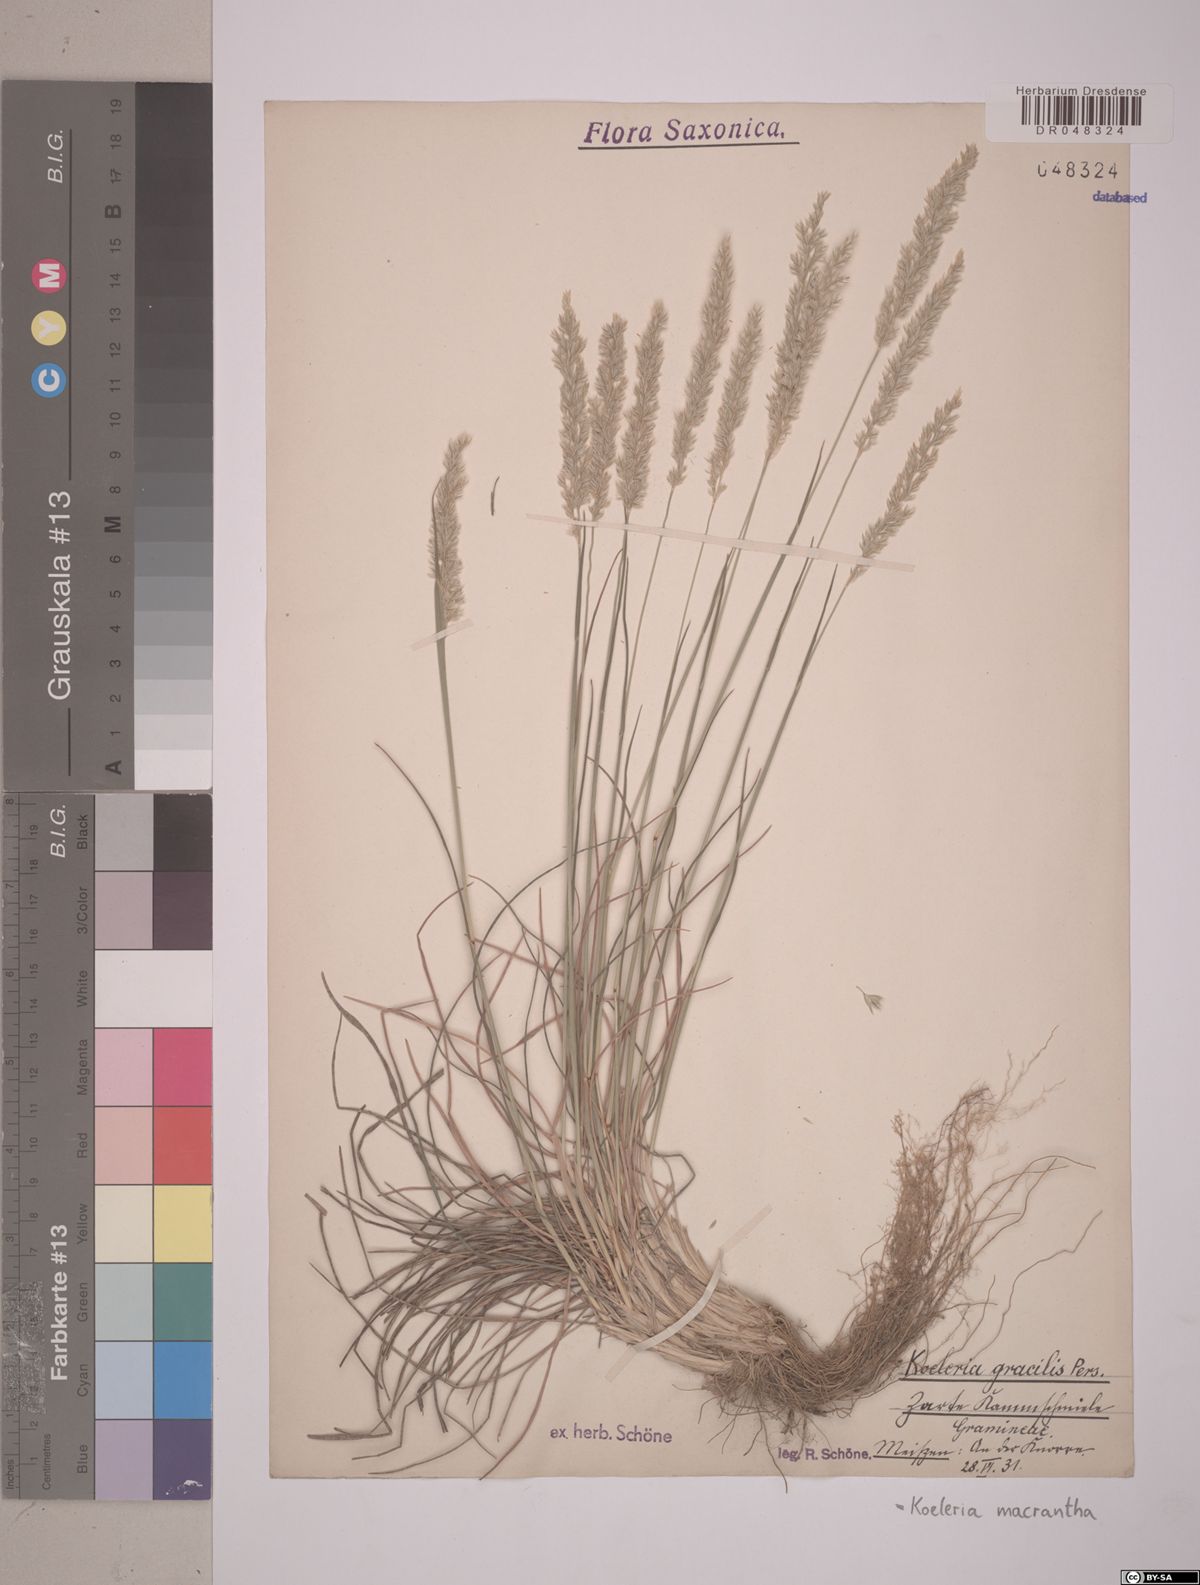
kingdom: Plantae
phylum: Tracheophyta
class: Liliopsida
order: Poales
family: Poaceae
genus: Koeleria
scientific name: Koeleria macrantha
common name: Crested hair-grass
